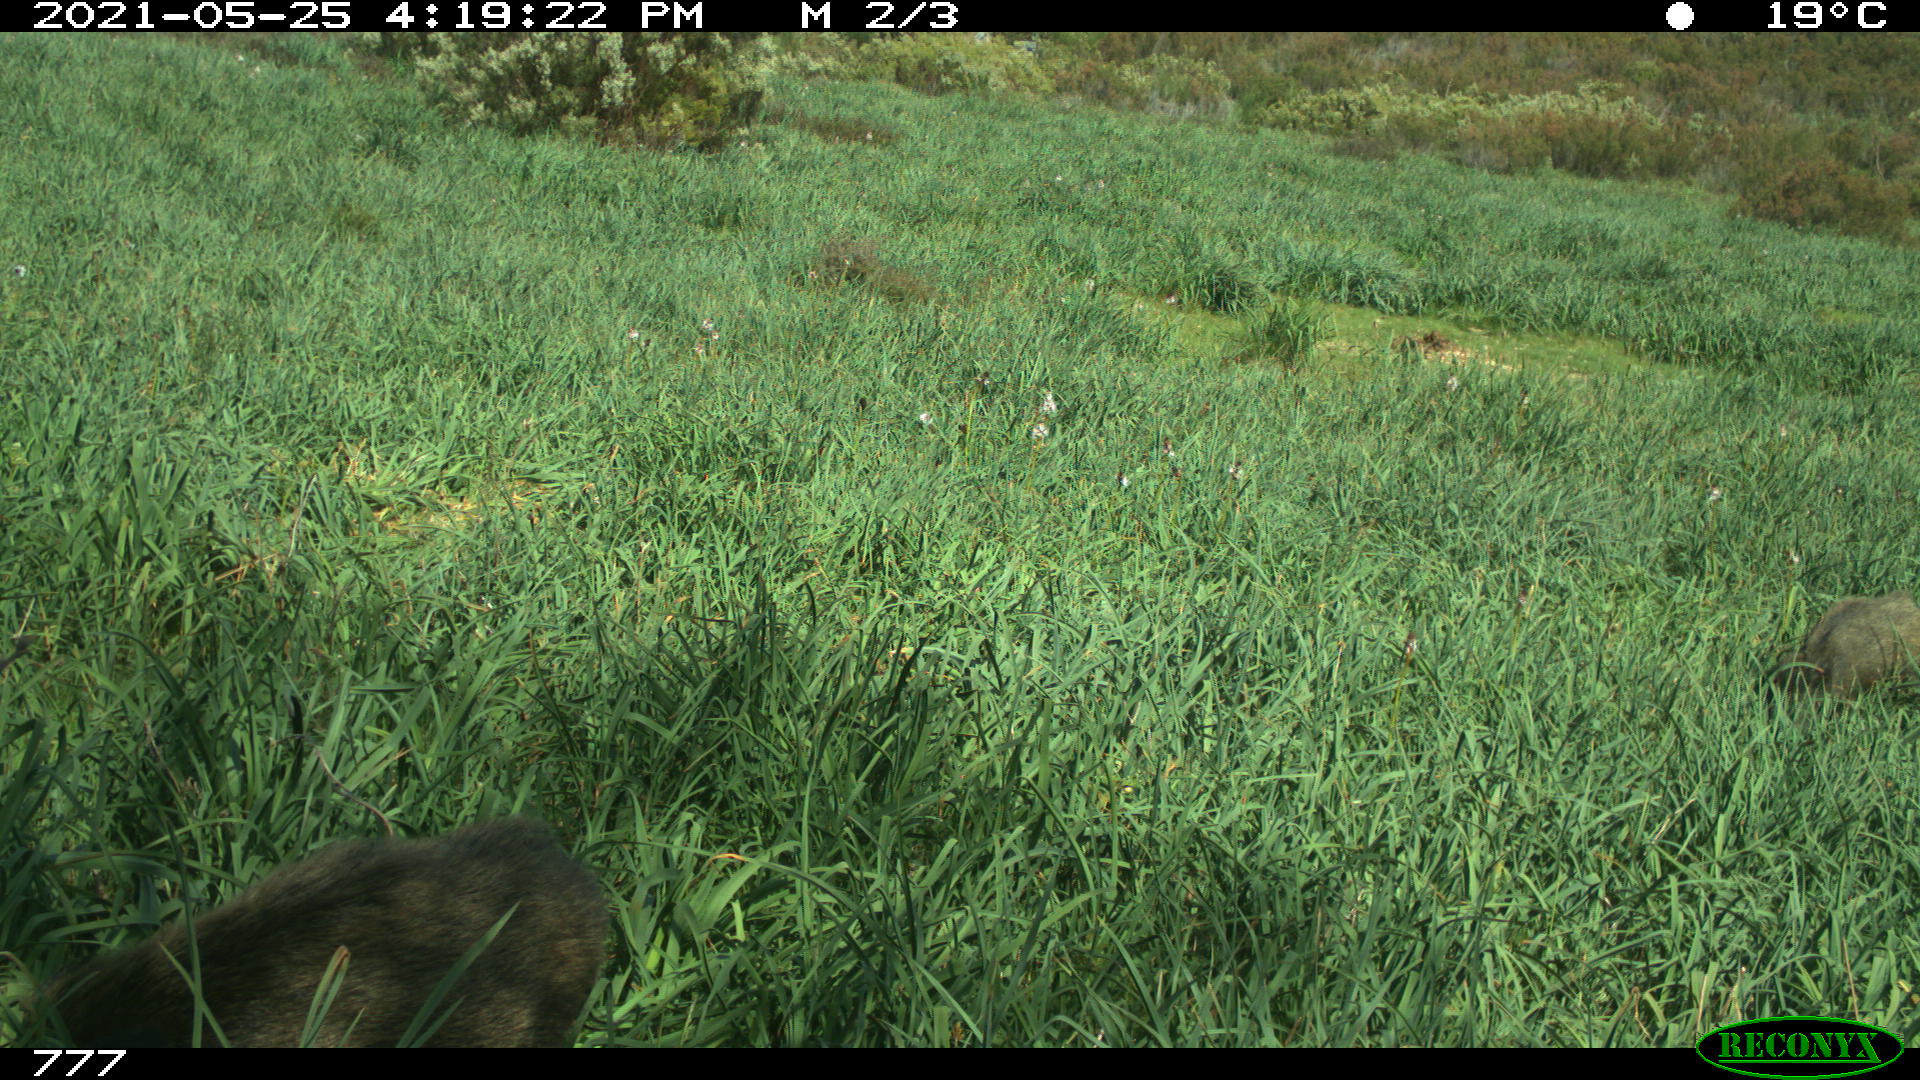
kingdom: Animalia
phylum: Chordata
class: Mammalia
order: Artiodactyla
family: Suidae
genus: Sus
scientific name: Sus scrofa
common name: Wild boar
